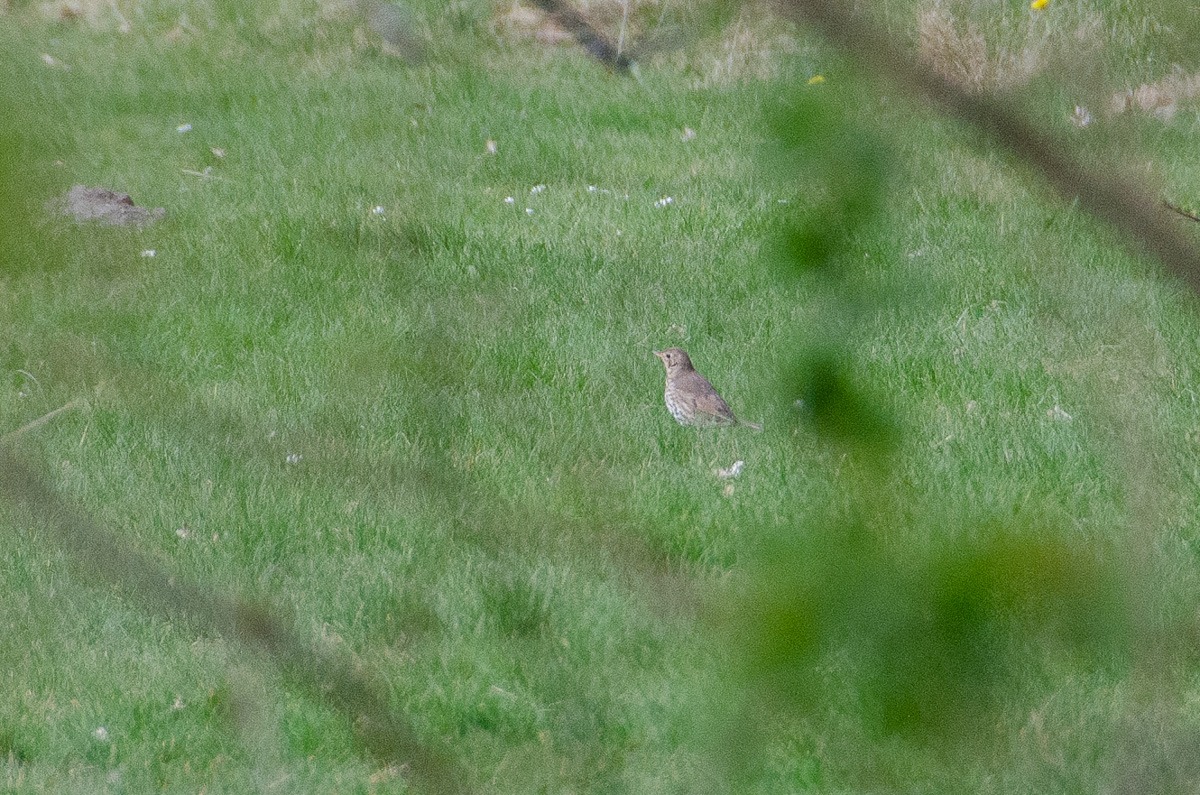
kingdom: Animalia
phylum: Chordata
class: Aves
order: Passeriformes
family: Turdidae
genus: Turdus
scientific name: Turdus philomelos
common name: Sangdrossel
